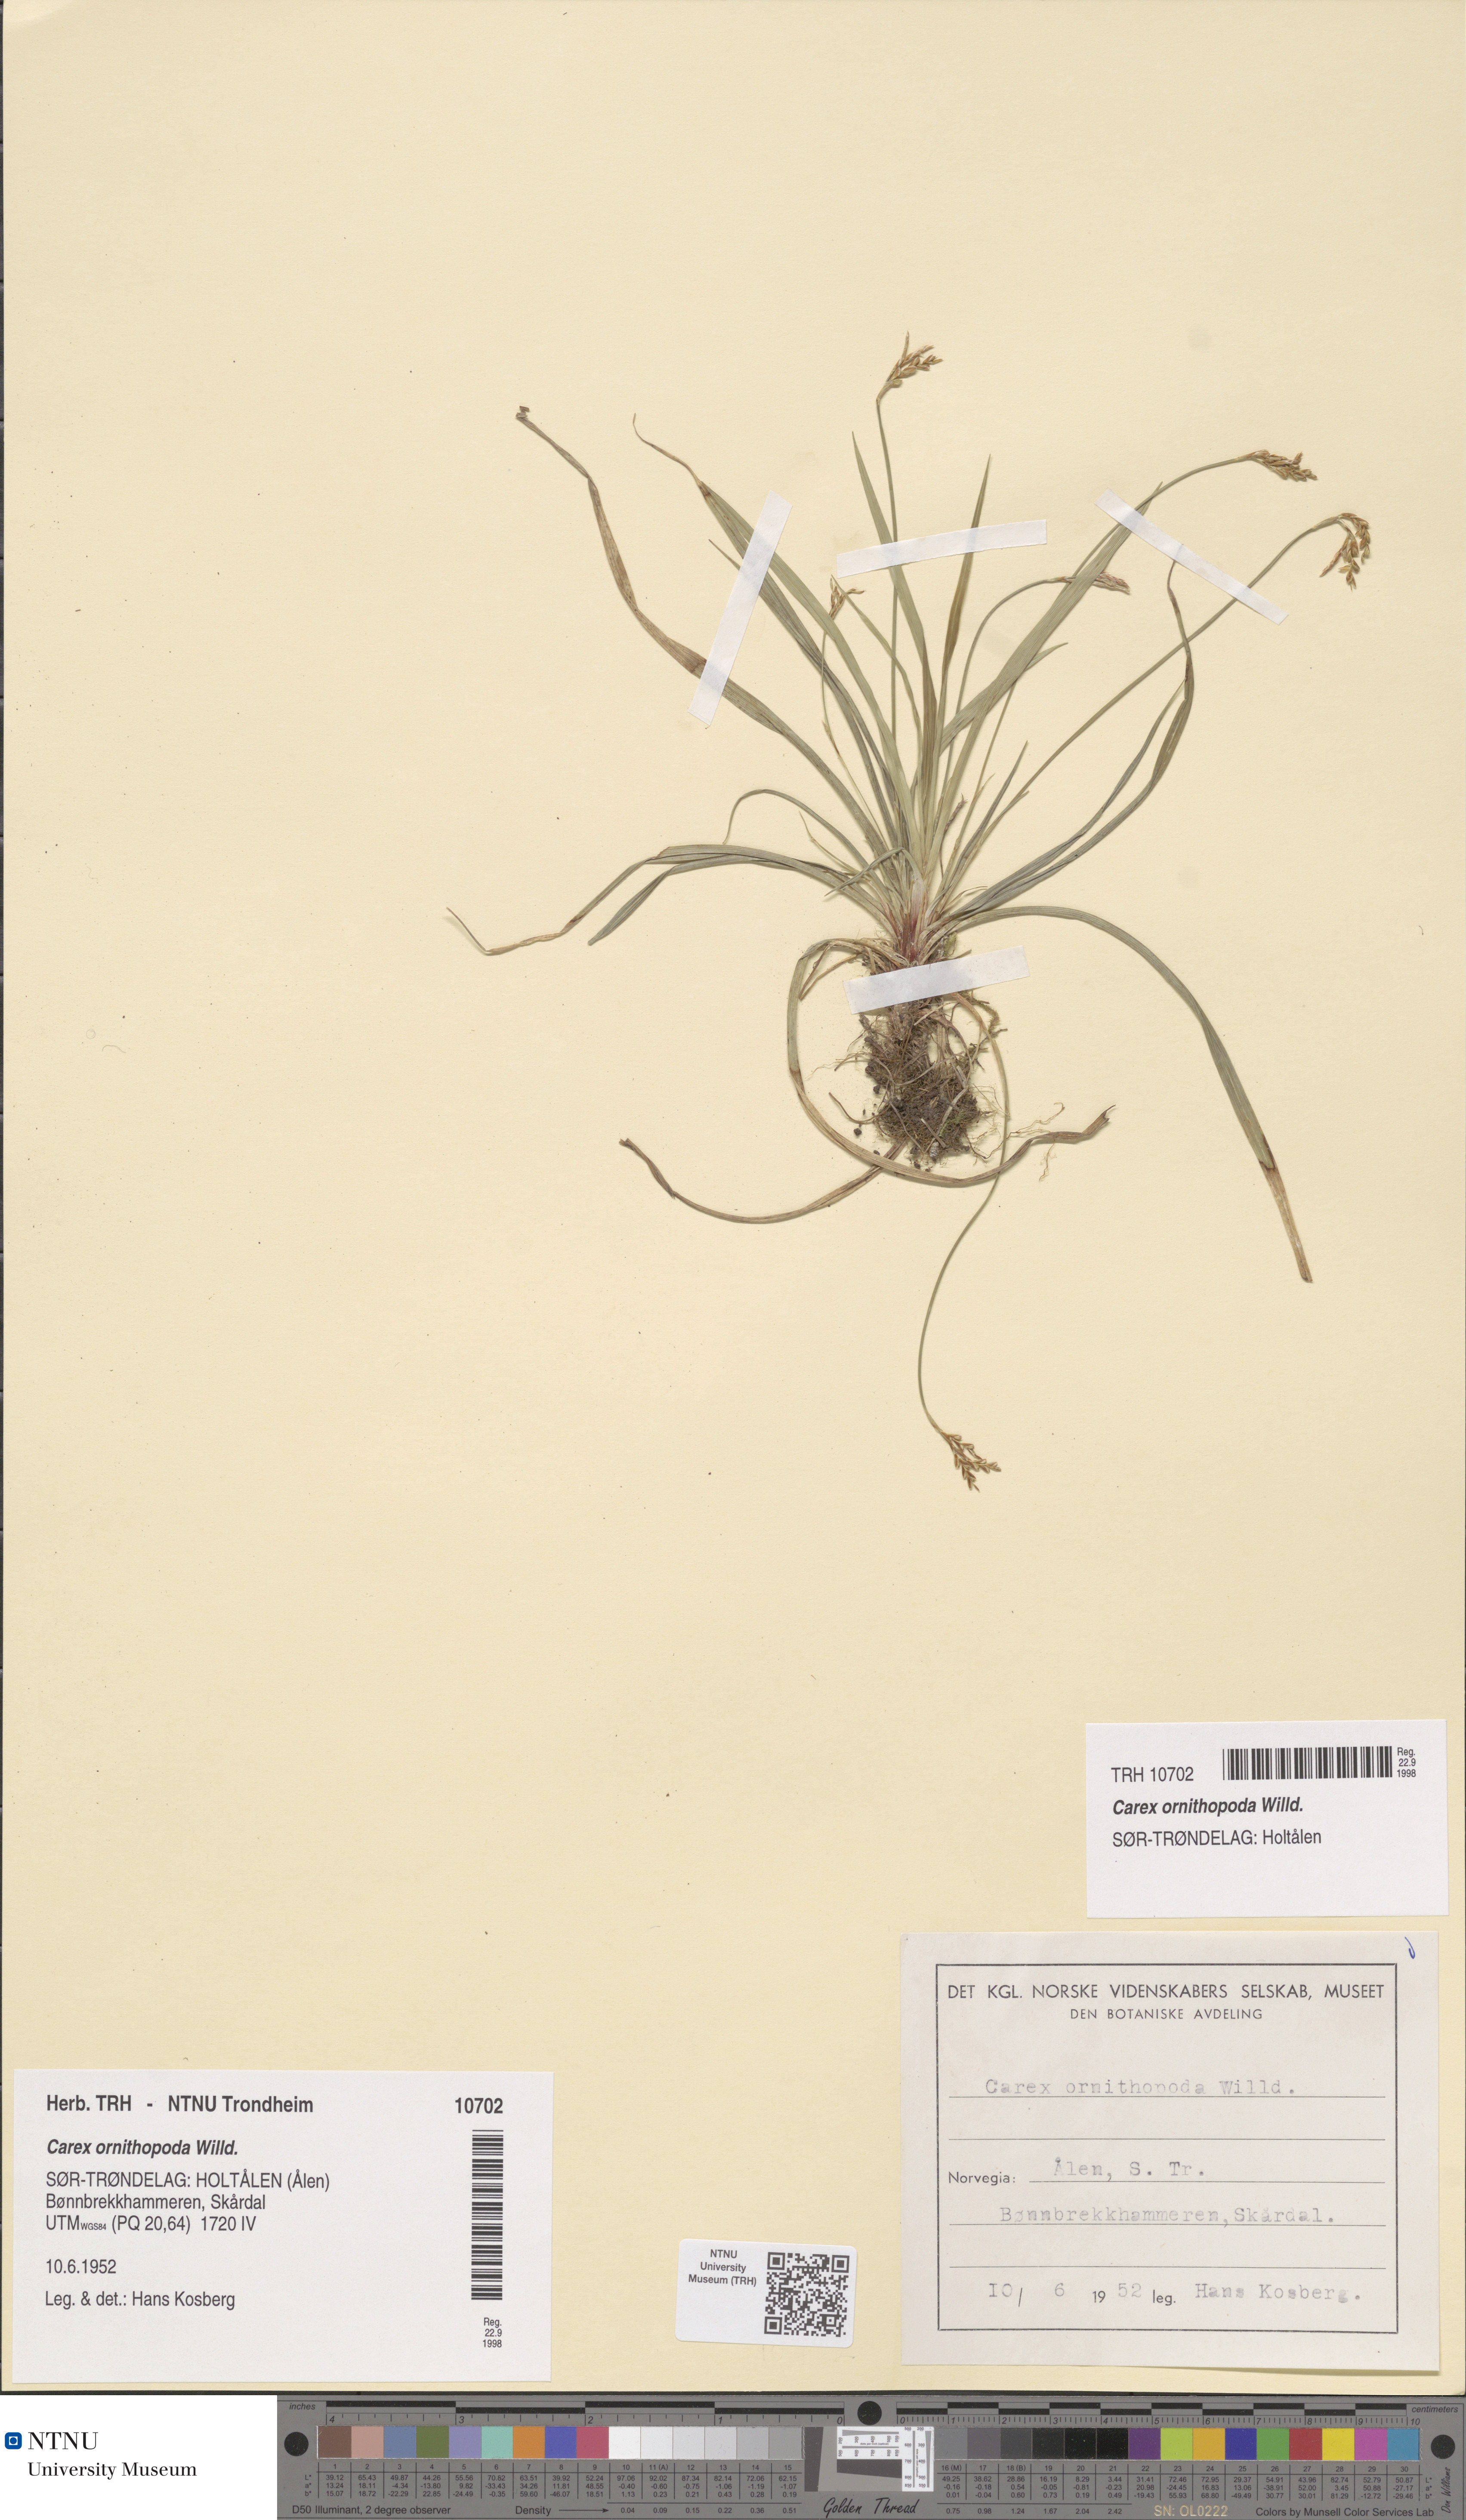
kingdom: Plantae
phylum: Tracheophyta
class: Liliopsida
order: Poales
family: Cyperaceae
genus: Carex
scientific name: Carex ornithopoda
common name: Bird's-foot sedge
